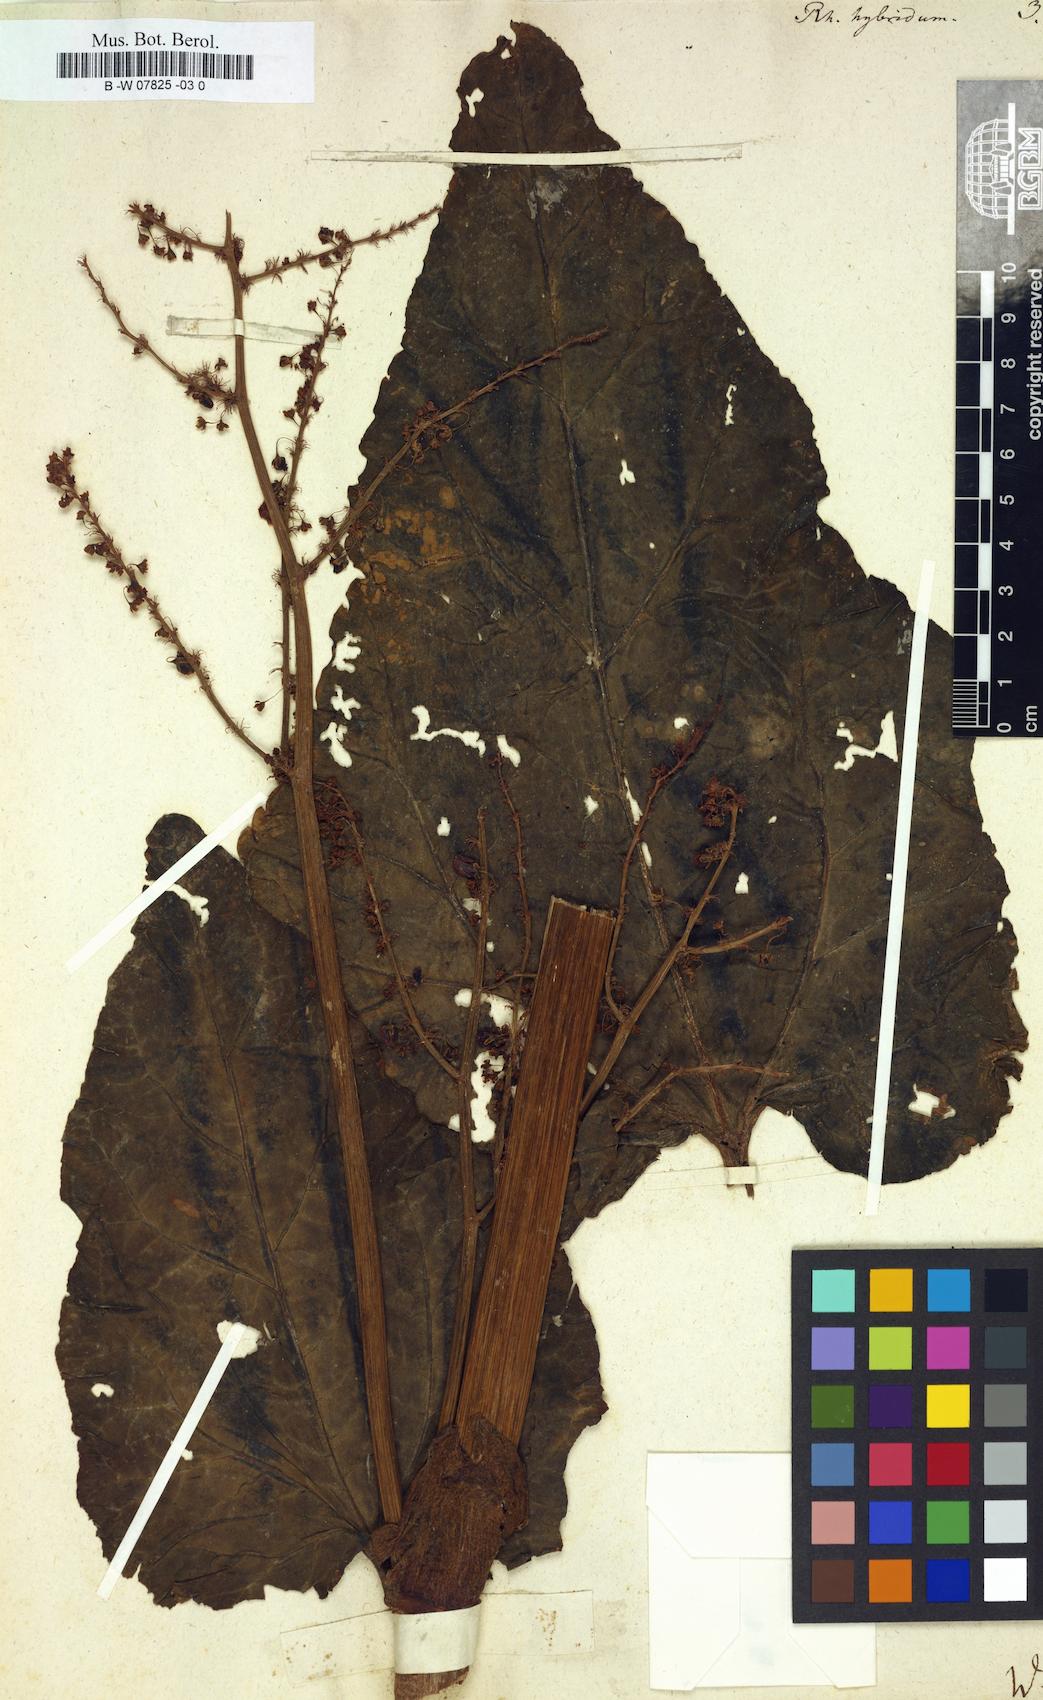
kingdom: Plantae
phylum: Tracheophyta
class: Magnoliopsida
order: Caryophyllales
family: Polygonaceae
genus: Rheum
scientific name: Rheum hybridum
